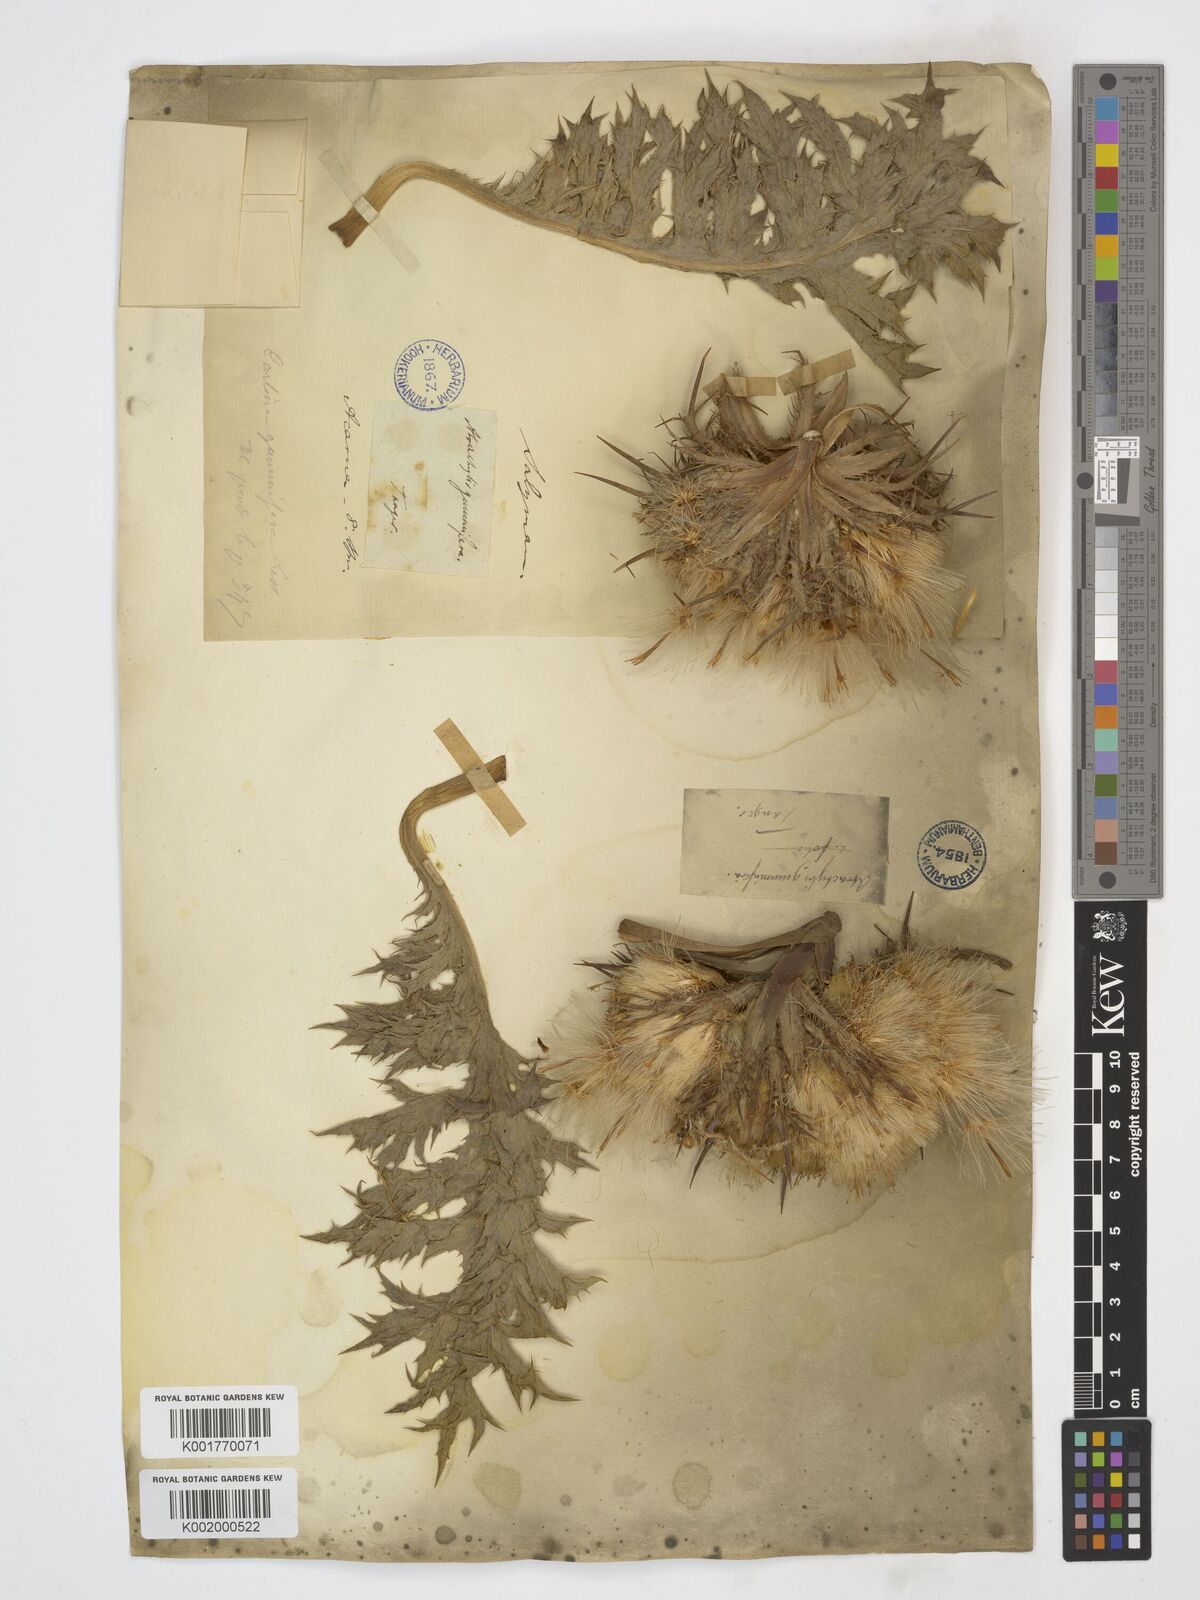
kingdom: Plantae
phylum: Tracheophyta
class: Magnoliopsida
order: Asterales
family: Asteraceae
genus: Chamaeleon
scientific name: Chamaeleon gummifer
